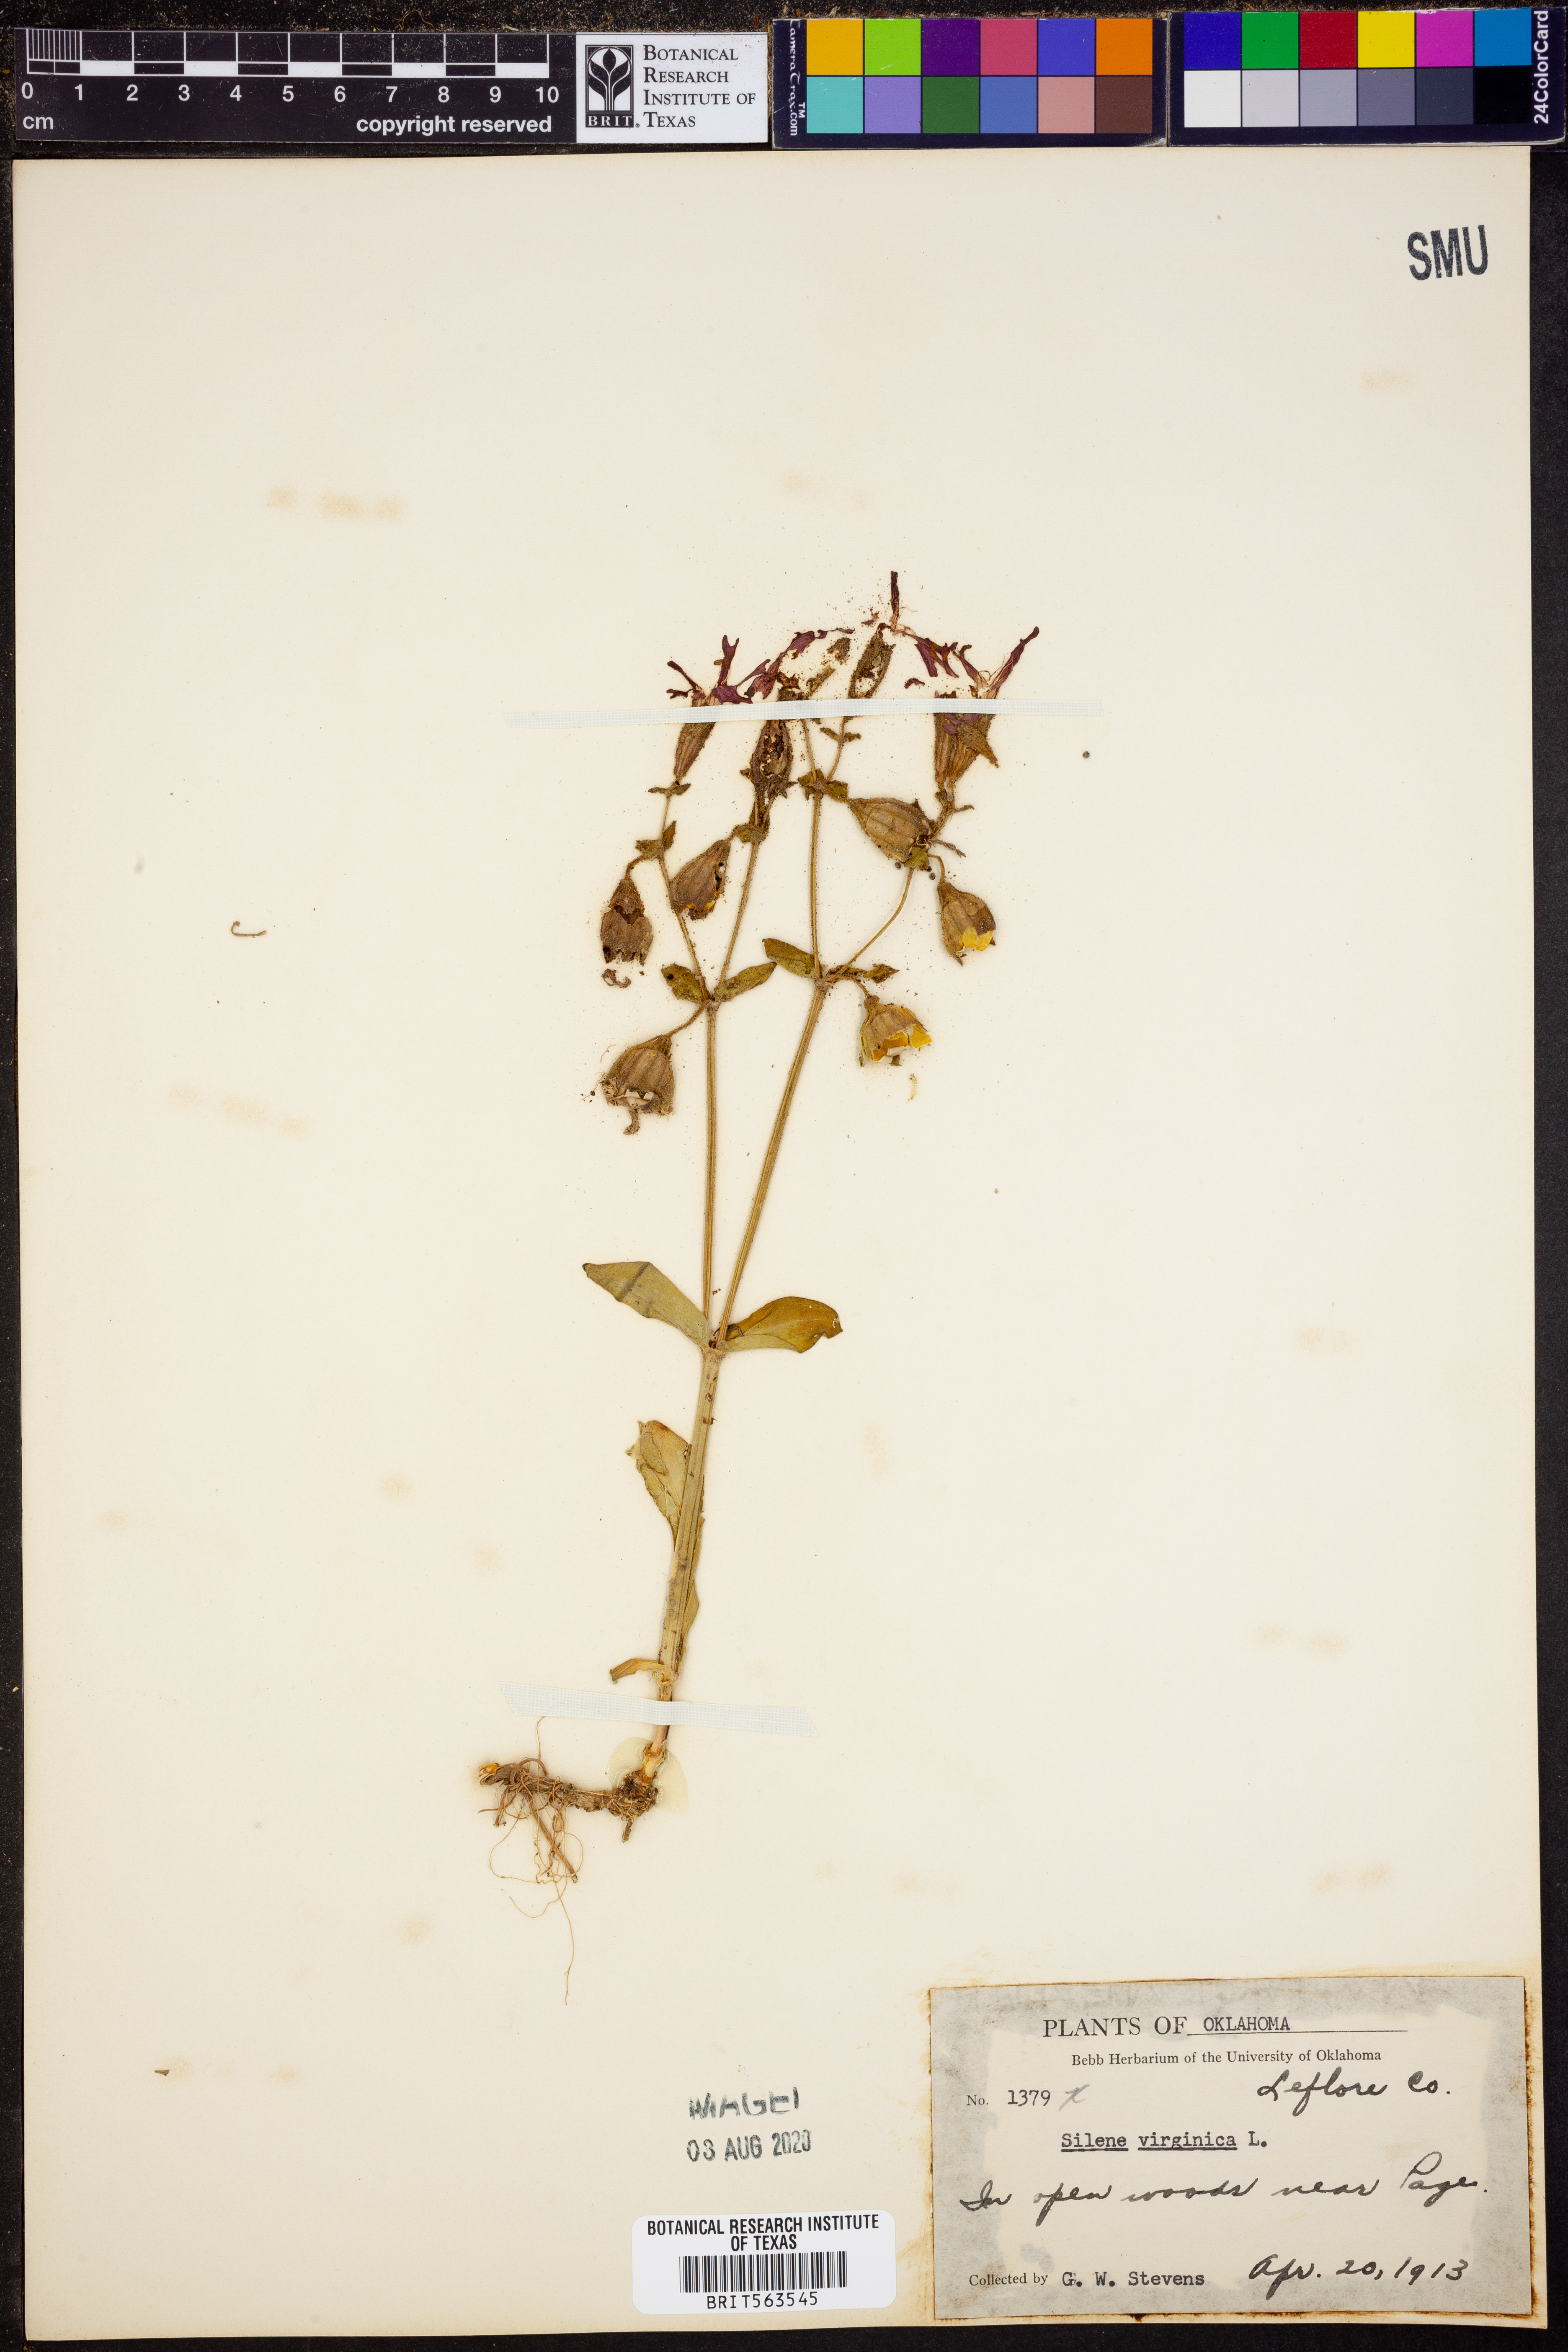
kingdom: Plantae
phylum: Tracheophyta
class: Magnoliopsida
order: Caryophyllales
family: Caryophyllaceae
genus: Silene
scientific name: Silene virginica
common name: Fire-pink
